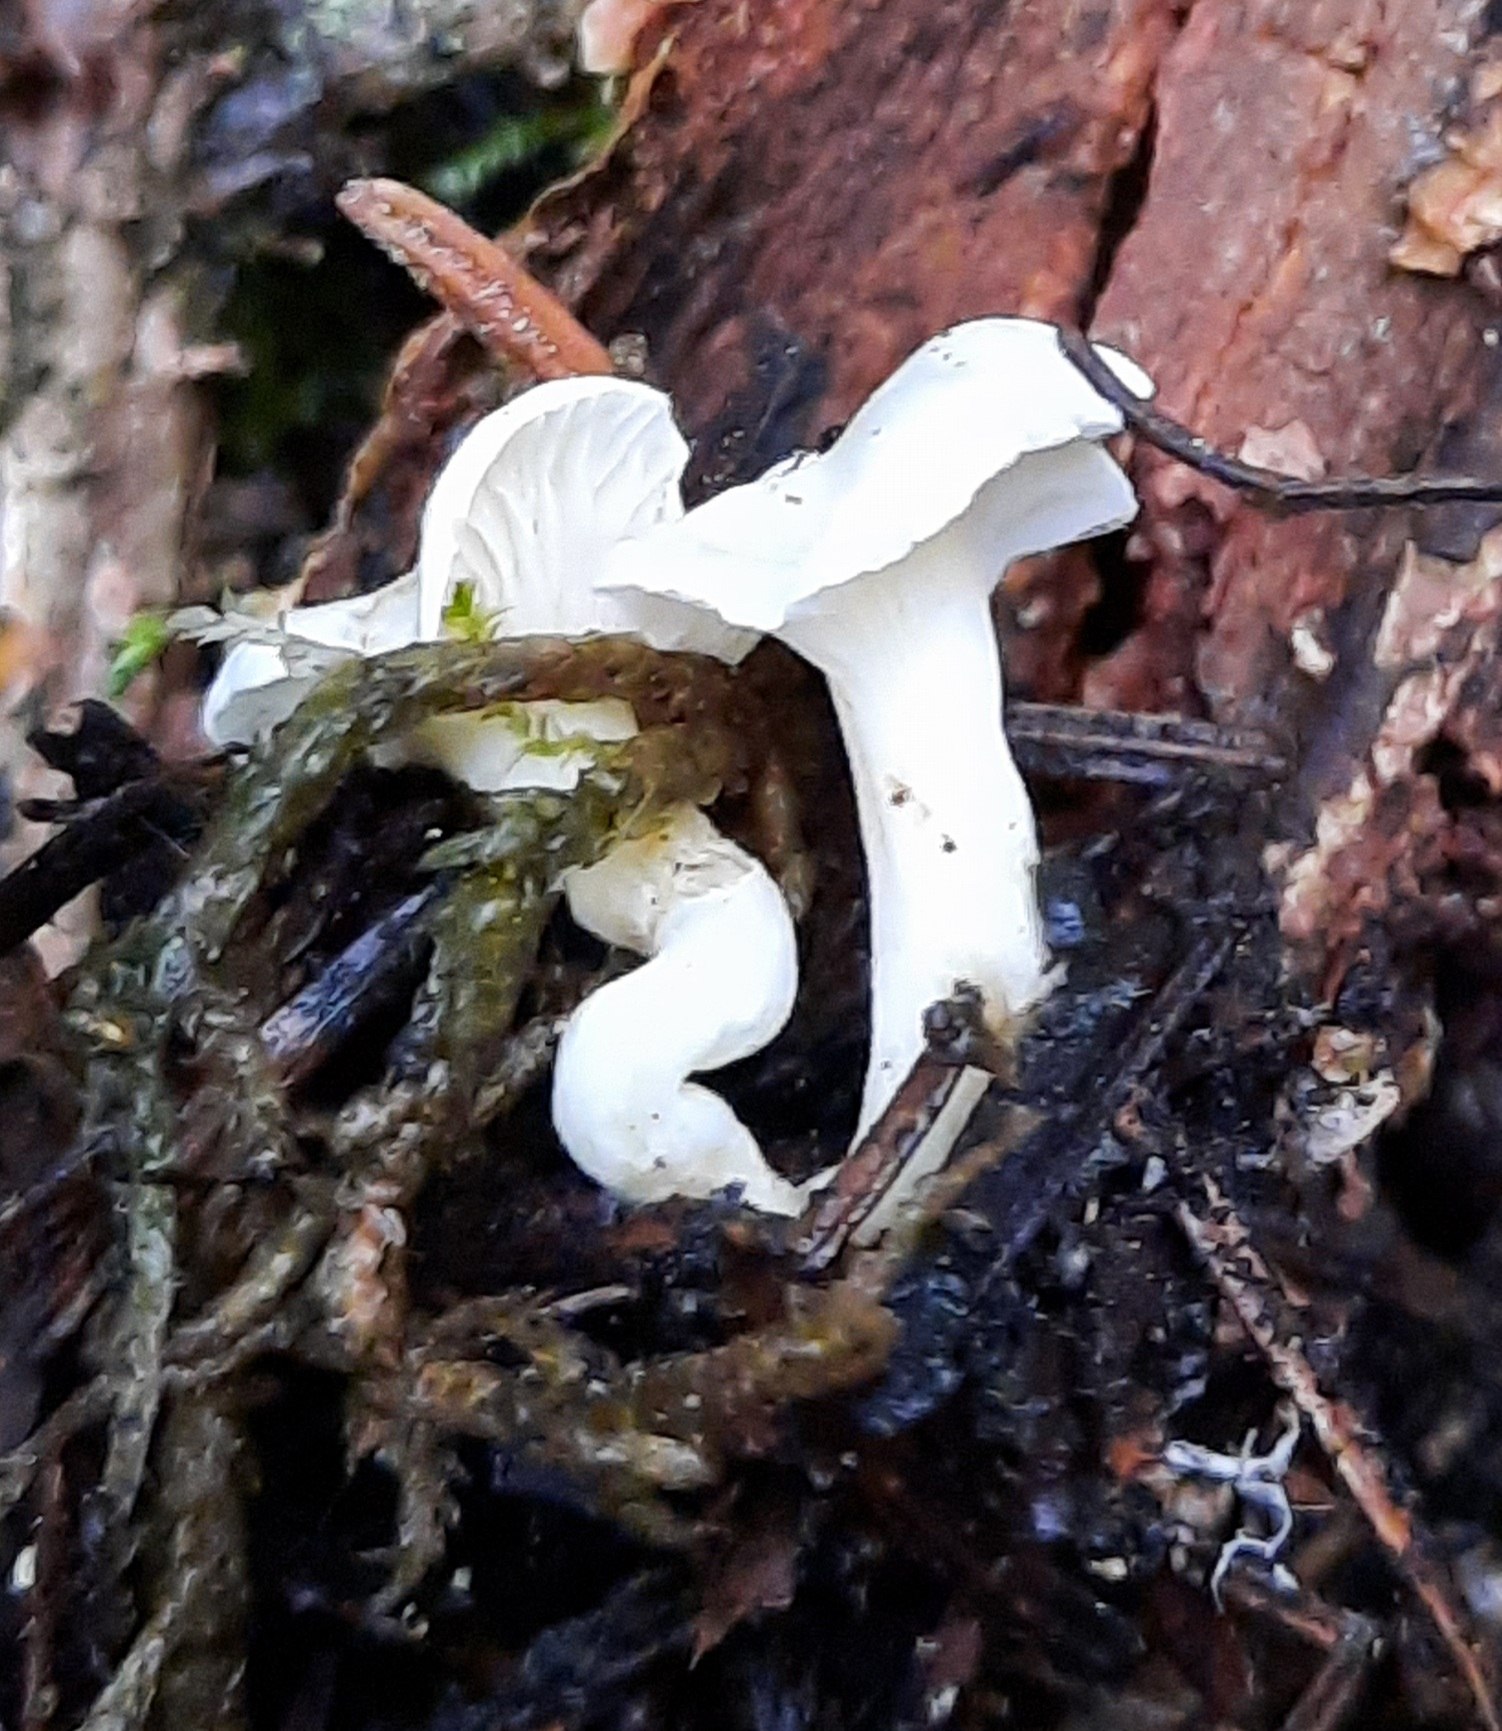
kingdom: Fungi
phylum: Basidiomycota
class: Agaricomycetes
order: Agaricales
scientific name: Agaricales
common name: champignonordenen
